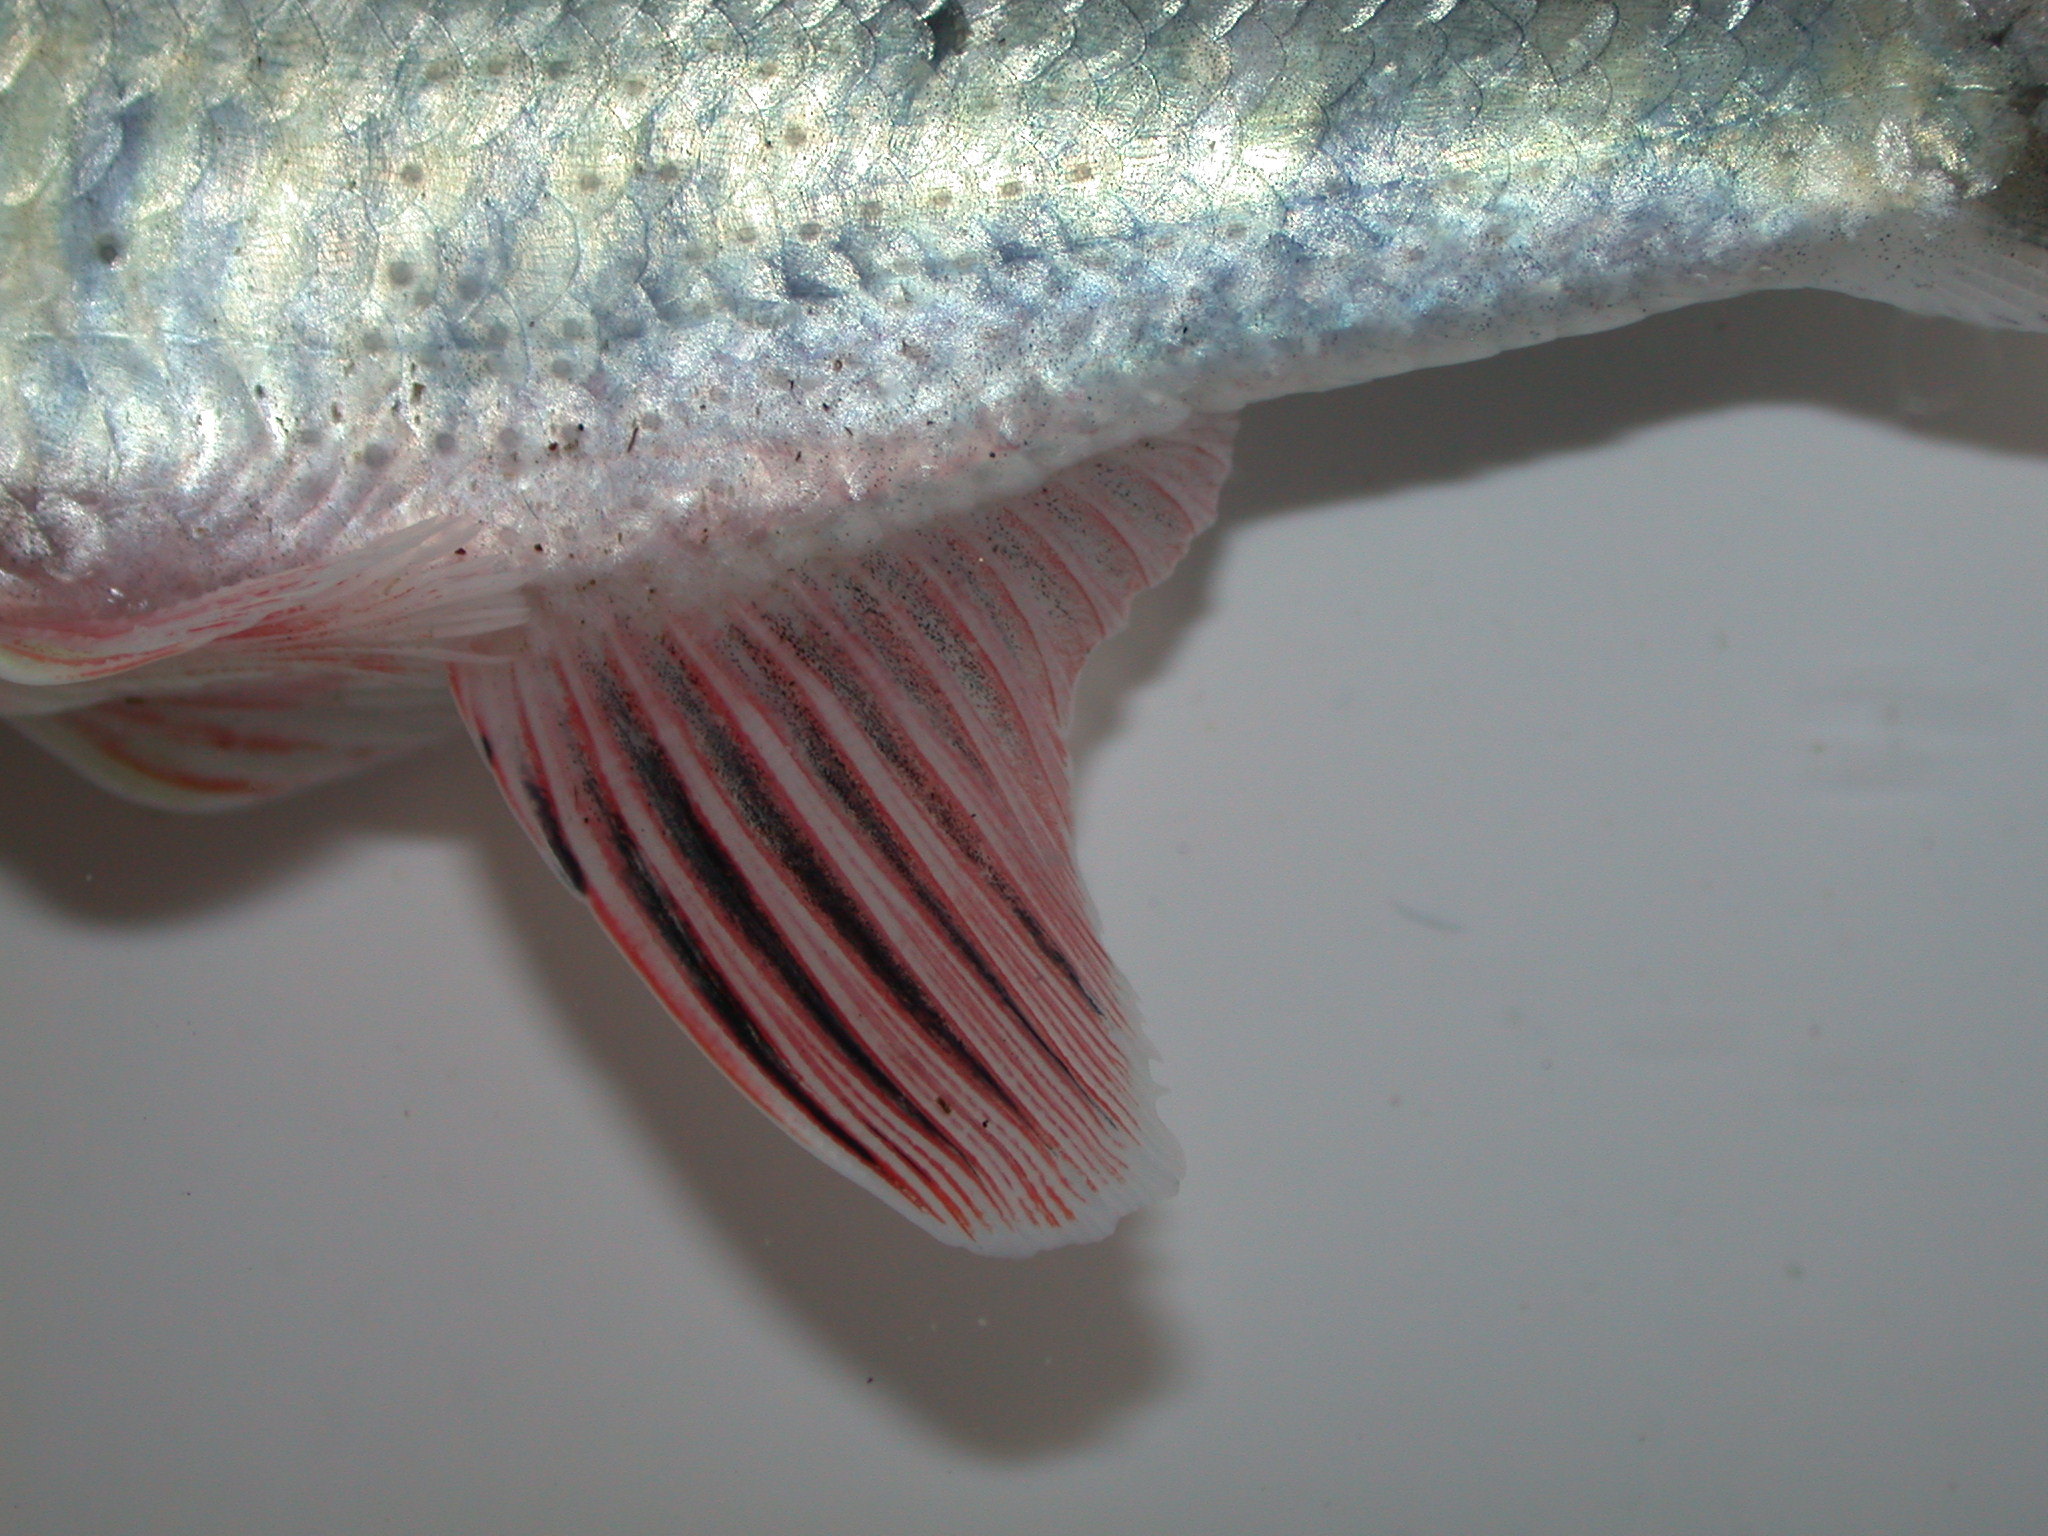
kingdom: Animalia
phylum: Chordata
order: Cypriniformes
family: Cyprinidae
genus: Opsaridium
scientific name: Opsaridium zambezense
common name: Barred minnow
